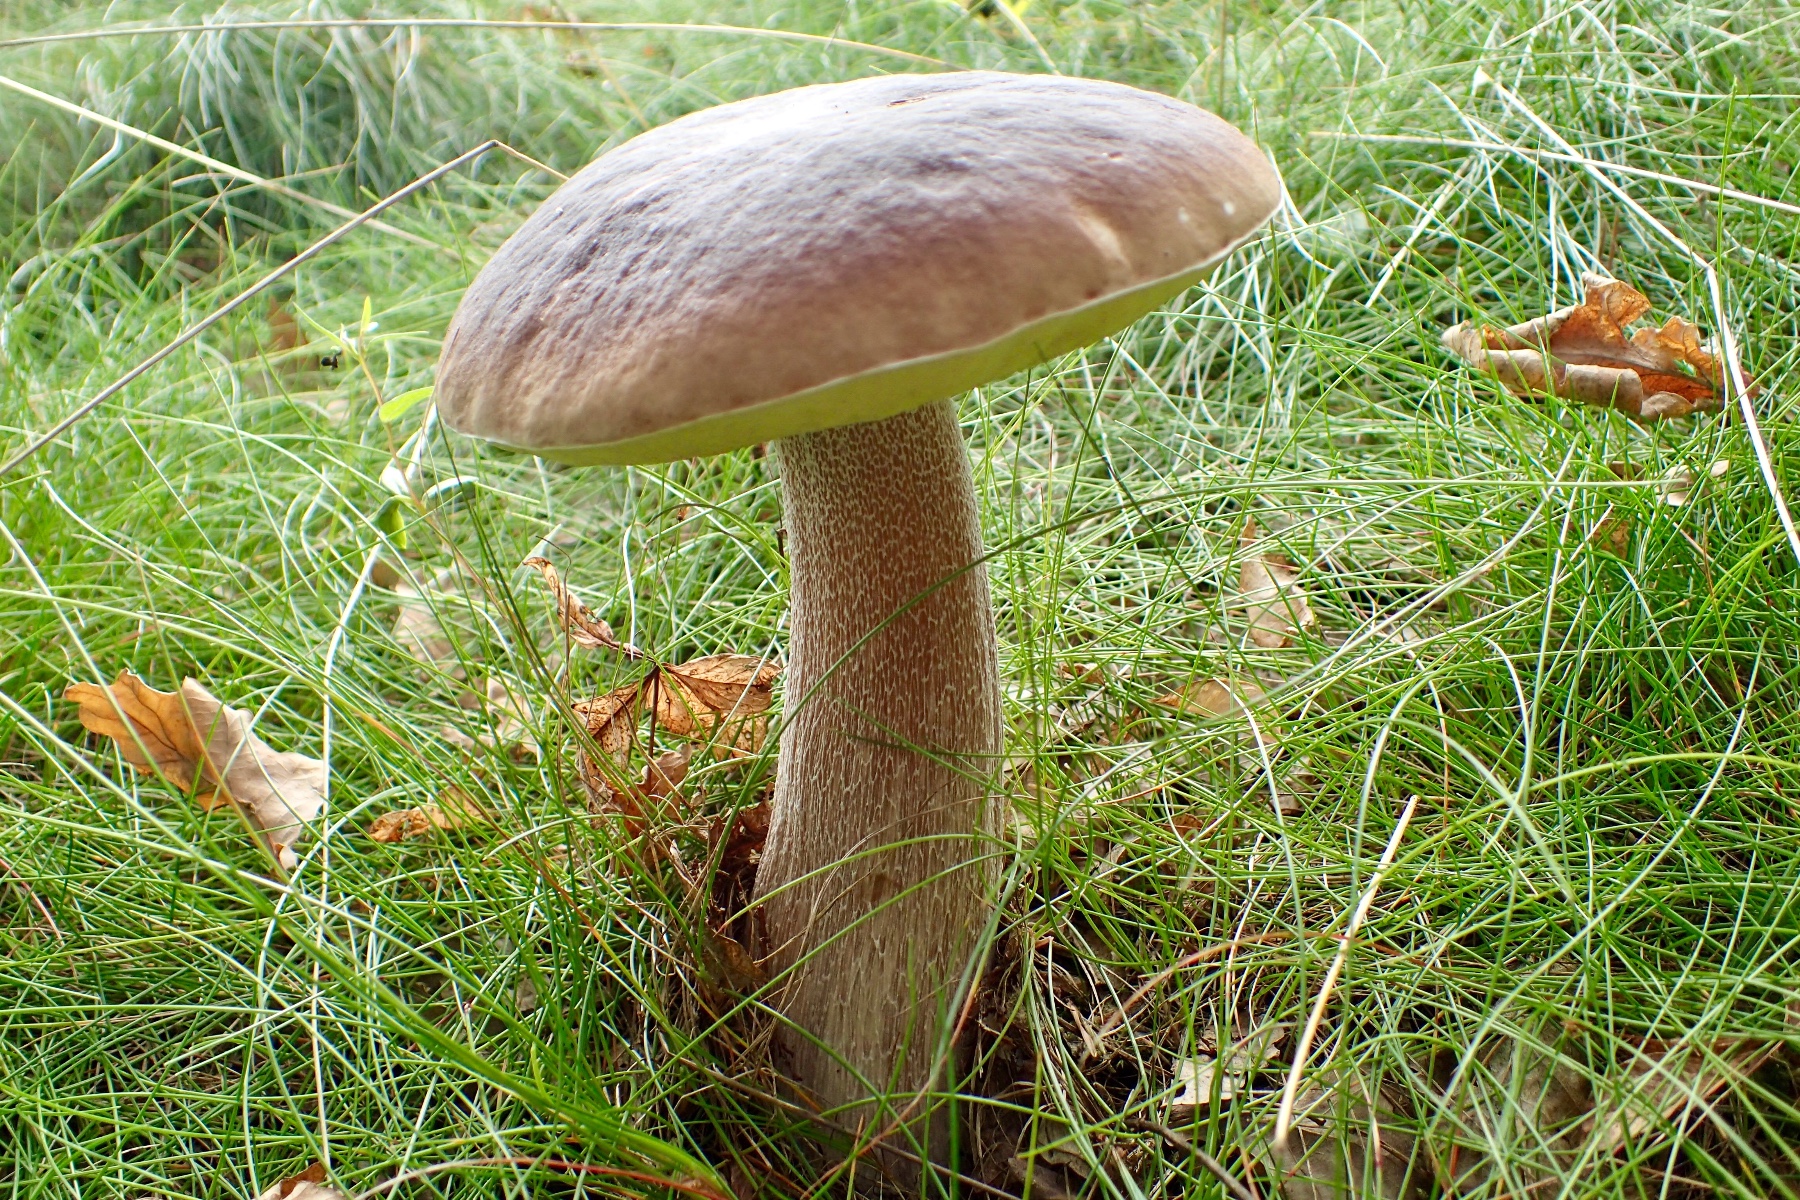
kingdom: Fungi
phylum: Basidiomycota
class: Agaricomycetes
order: Boletales
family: Boletaceae
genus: Boletus
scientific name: Boletus edulis
